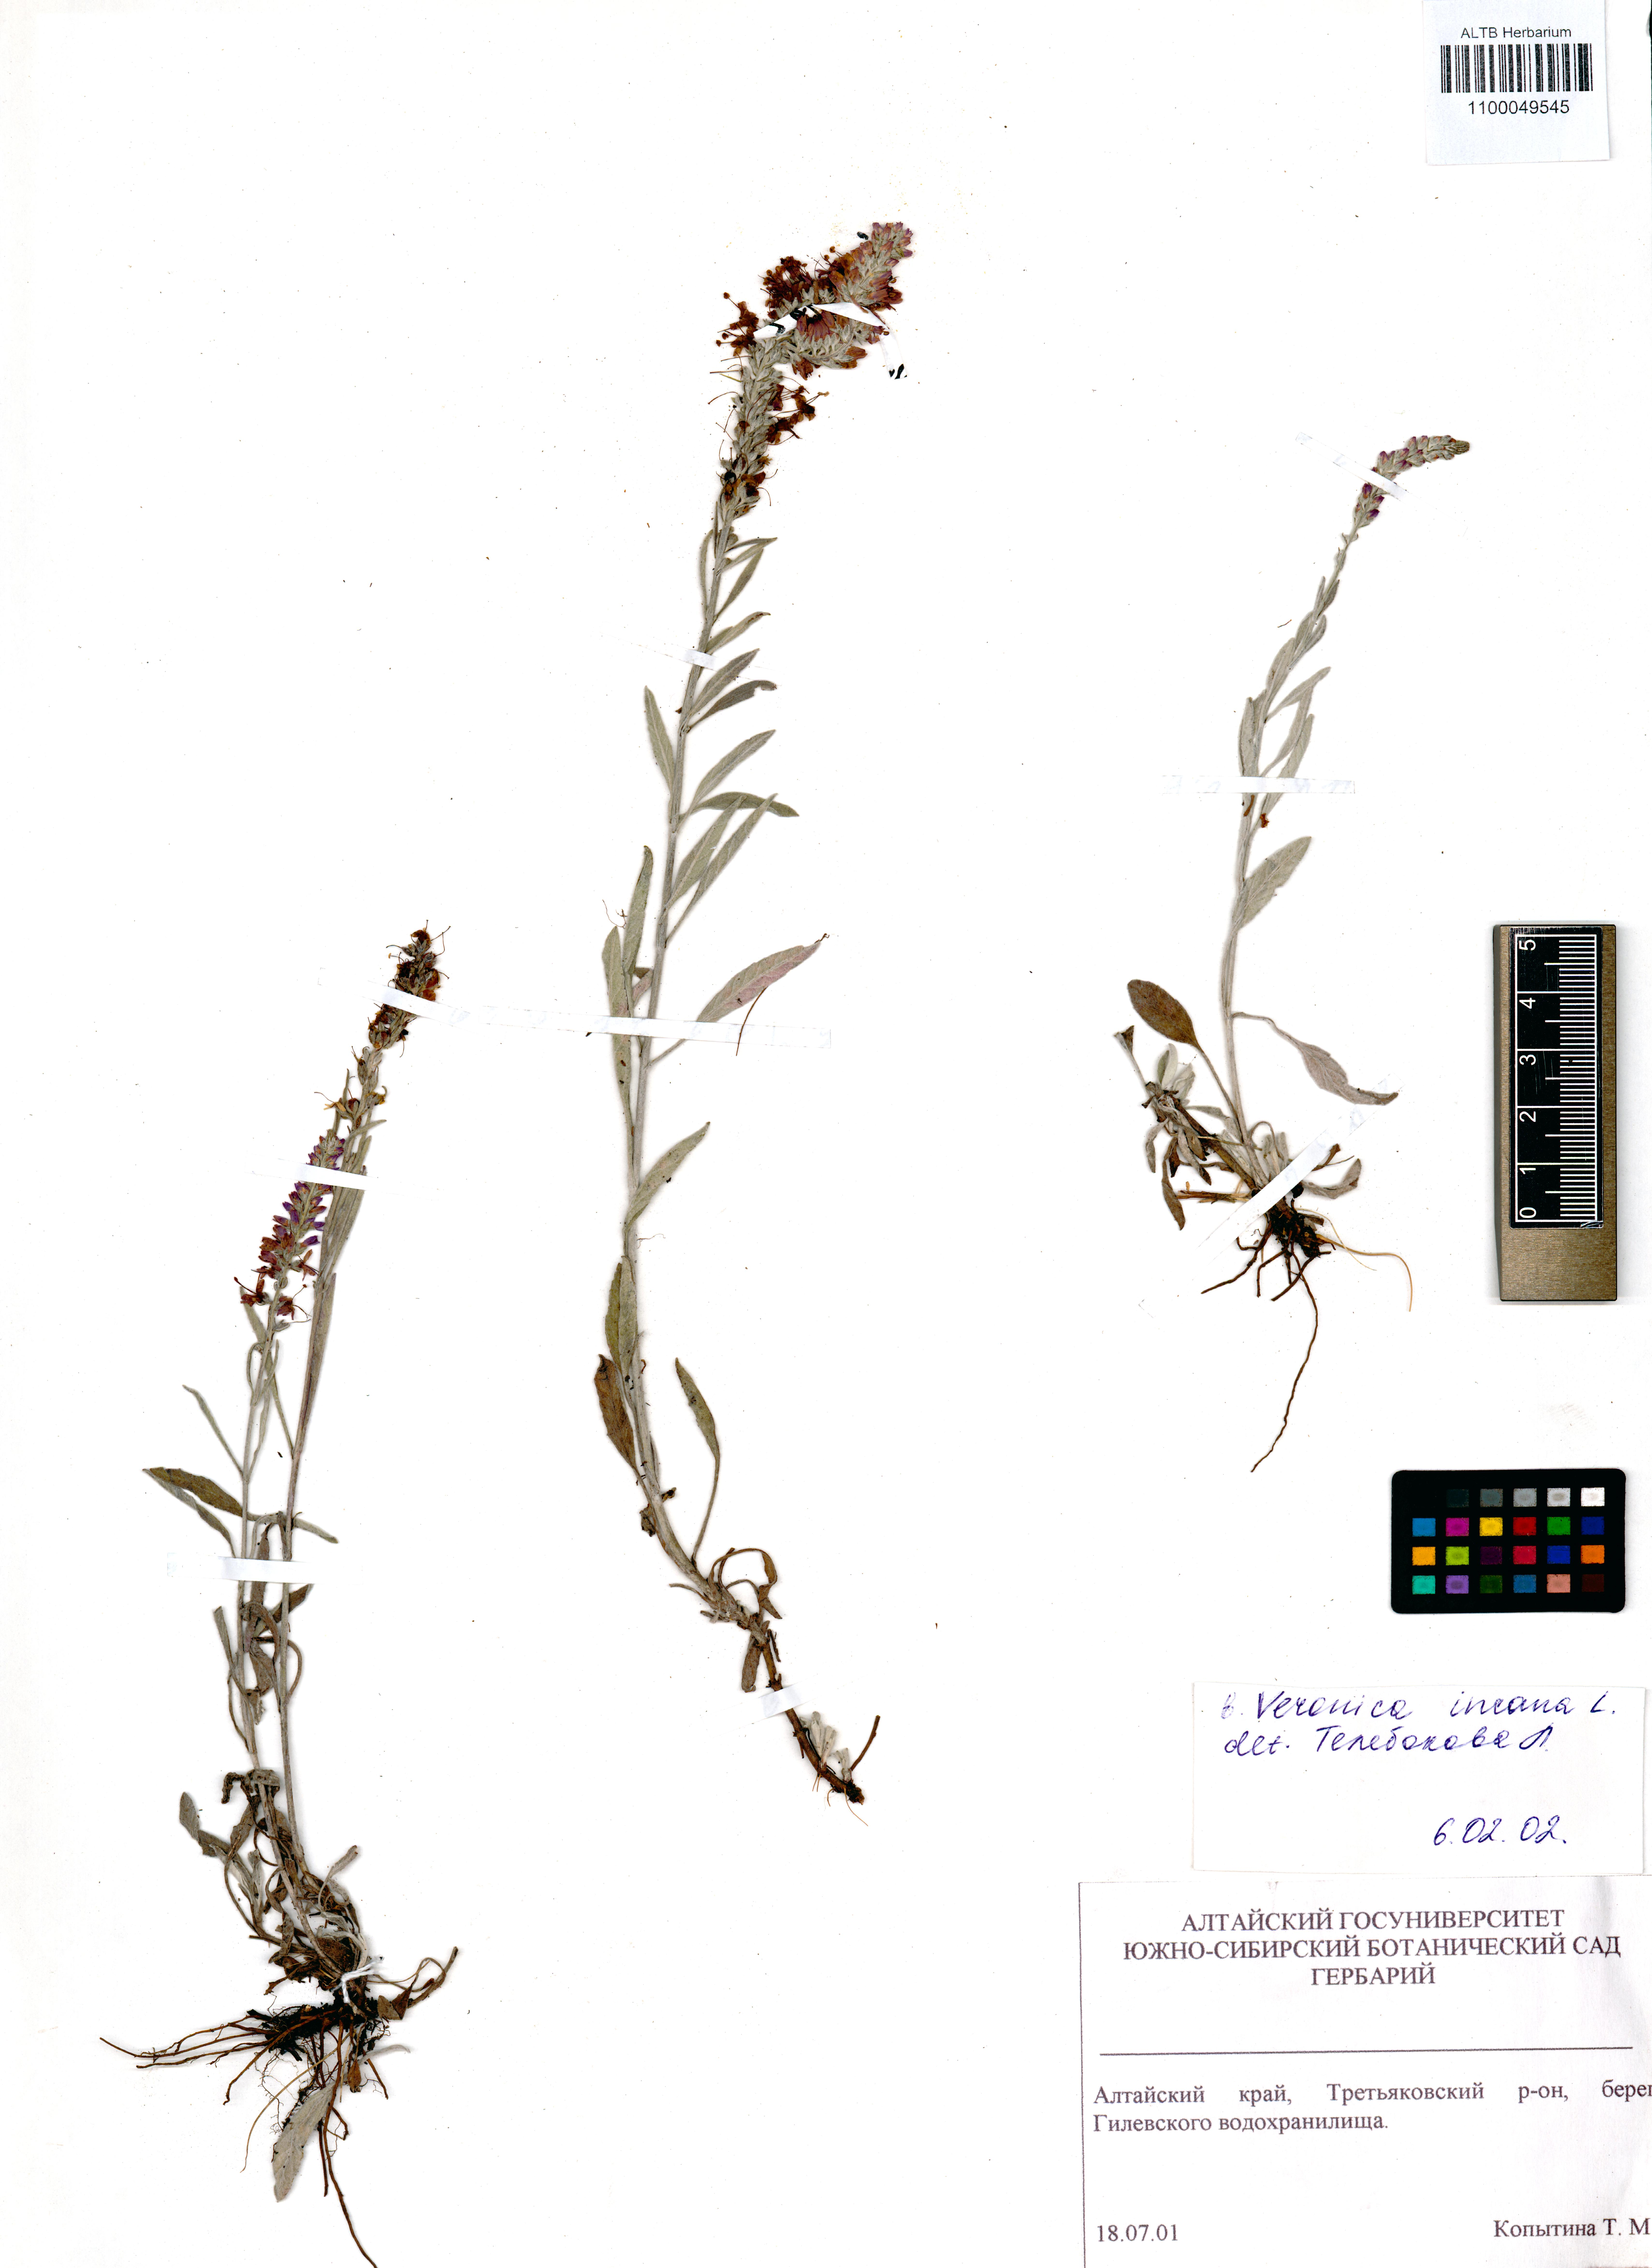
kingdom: Plantae
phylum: Tracheophyta
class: Magnoliopsida
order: Lamiales
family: Plantaginaceae
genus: Veronica
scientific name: Veronica incana
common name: Silver speedwell
